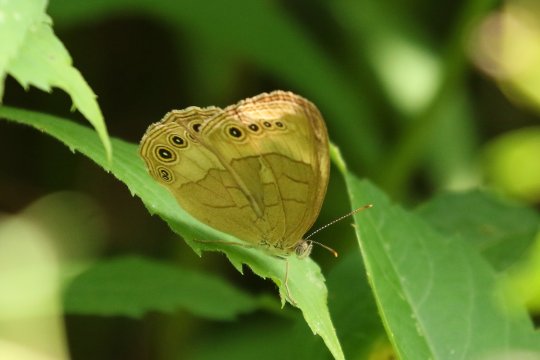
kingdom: Animalia
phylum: Arthropoda
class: Insecta
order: Lepidoptera
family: Nymphalidae
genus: Lethe
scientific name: Lethe eurydice
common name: Appalachian Eyed Brown
